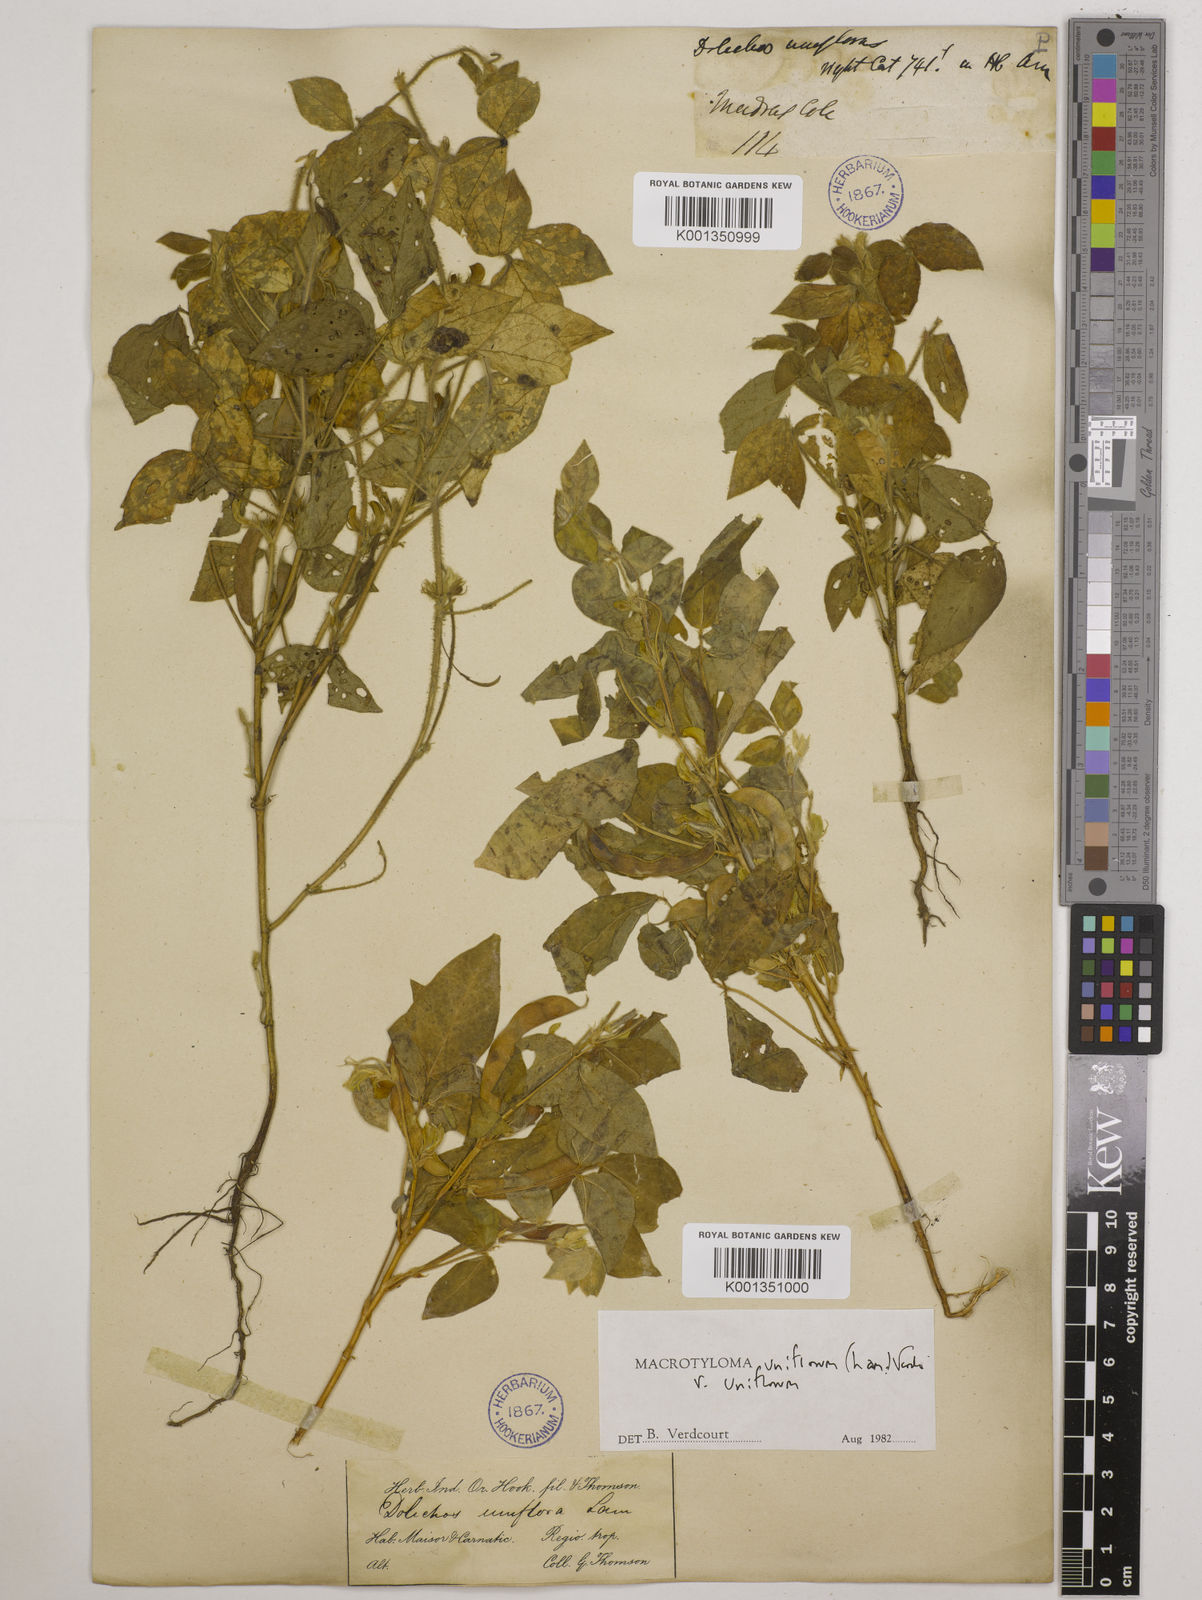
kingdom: Plantae
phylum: Tracheophyta
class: Magnoliopsida
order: Fabales
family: Fabaceae
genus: Macrotyloma
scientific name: Macrotyloma uniflorum
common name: Horse gram
